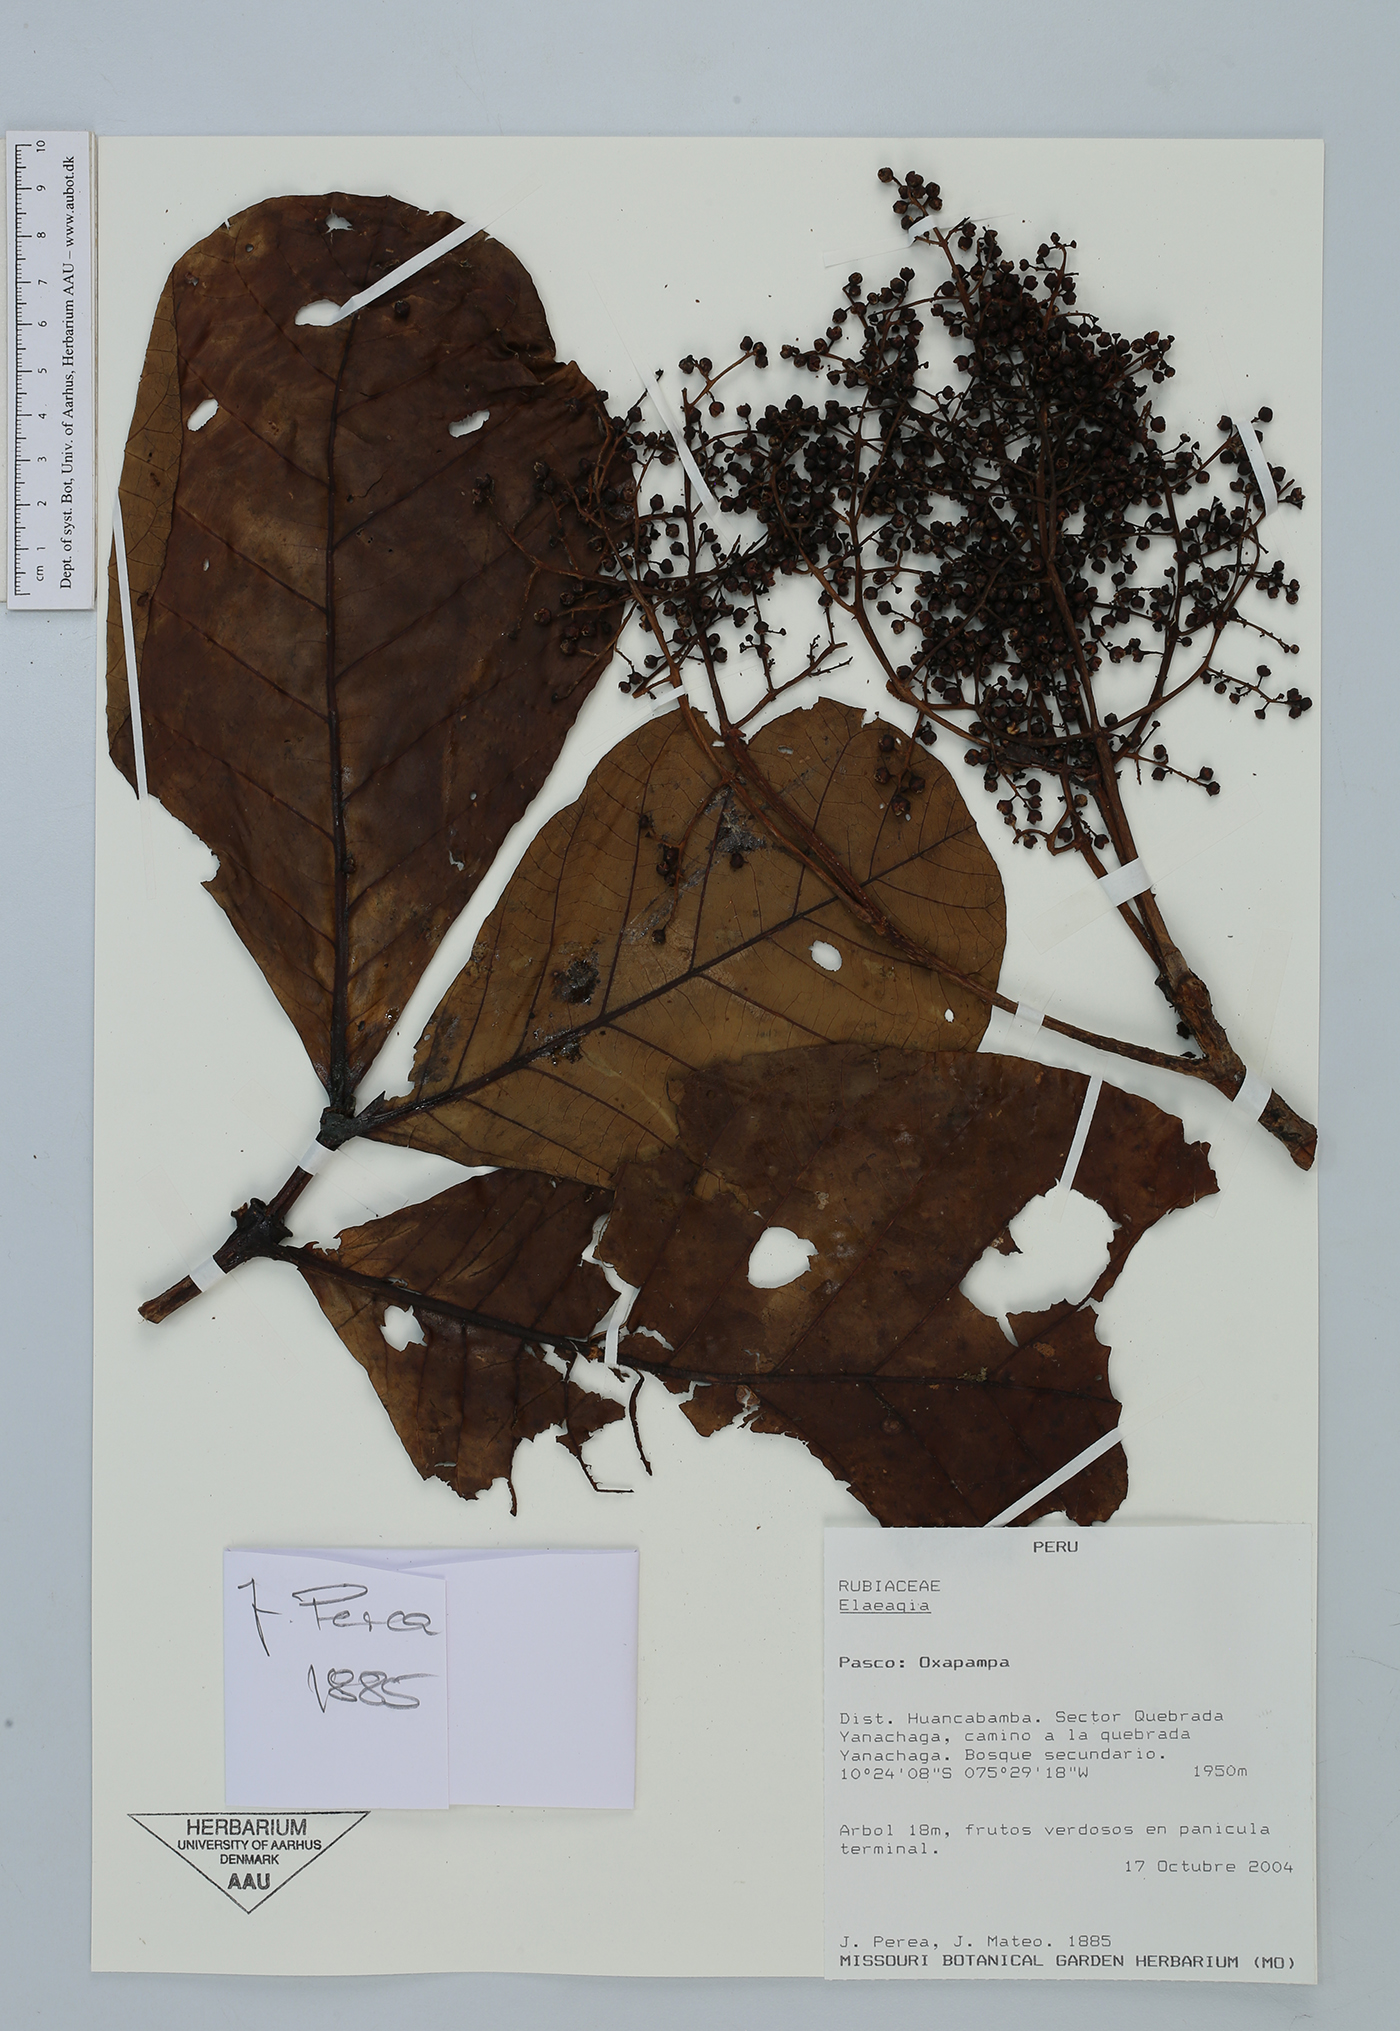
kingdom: Plantae
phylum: Tracheophyta
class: Magnoliopsida
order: Gentianales
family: Rubiaceae
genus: Elaeagia
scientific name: Elaeagia
